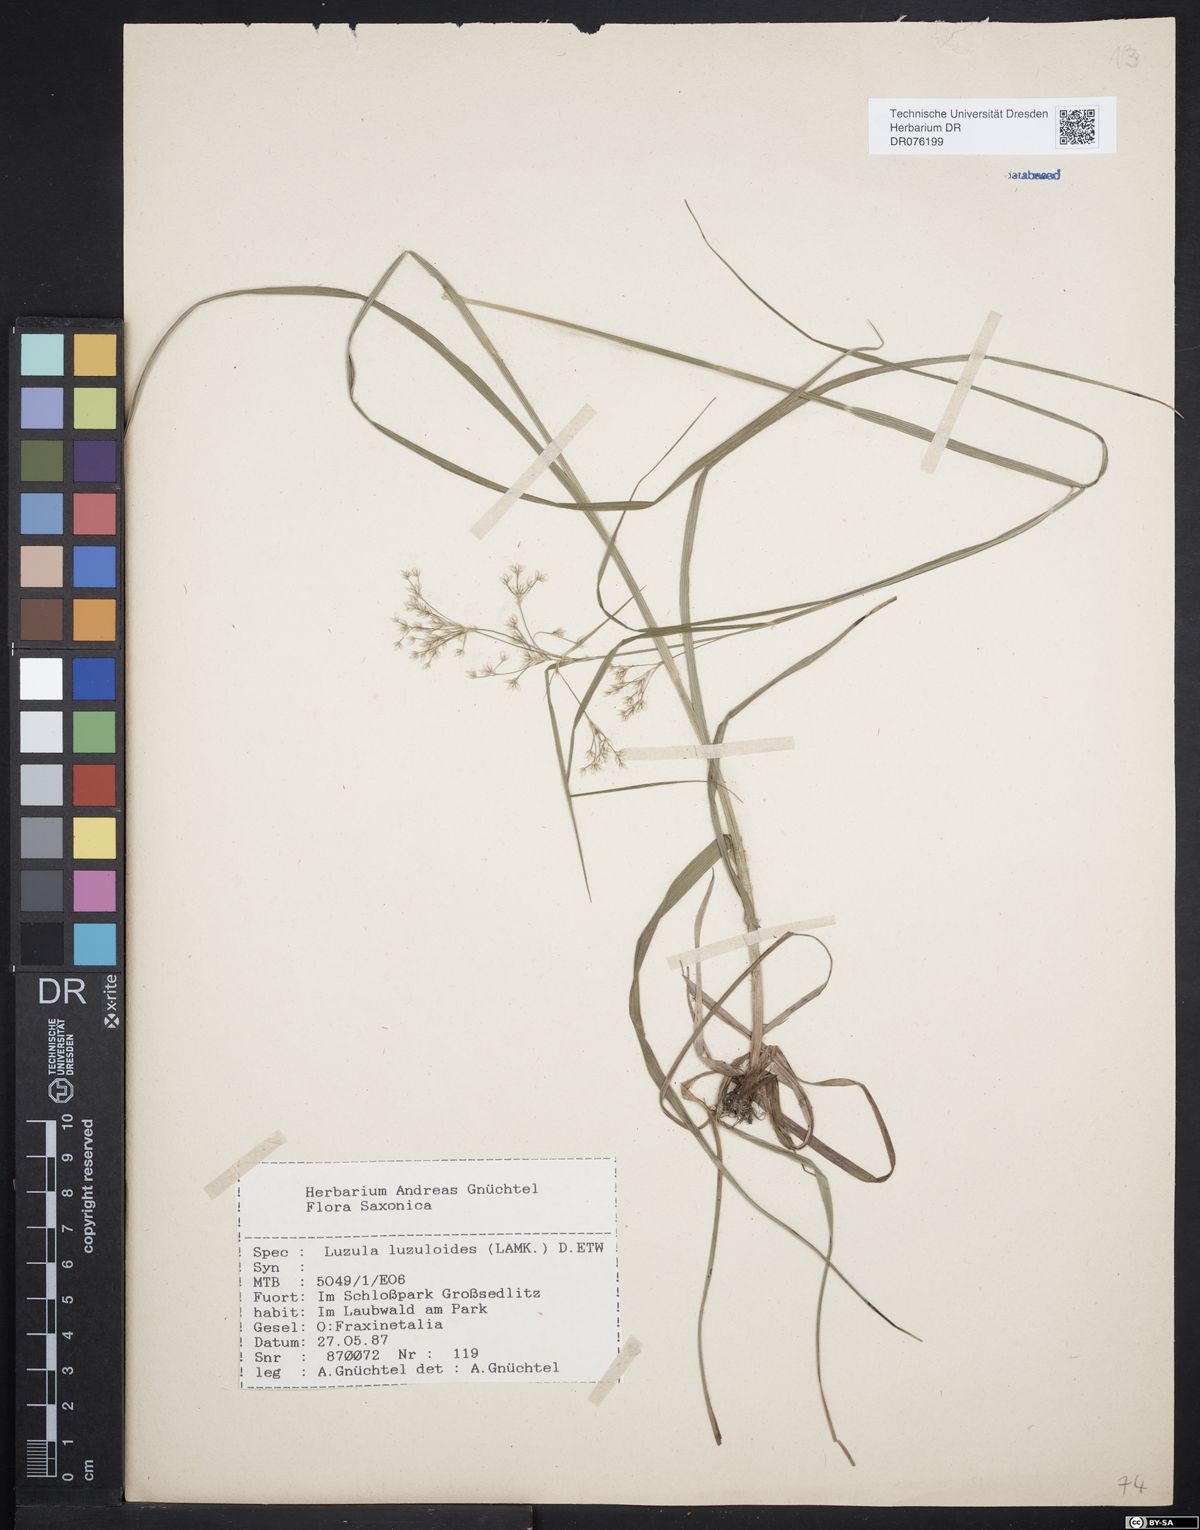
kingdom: Plantae
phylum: Tracheophyta
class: Liliopsida
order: Poales
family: Juncaceae
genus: Luzula
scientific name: Luzula luzuloides
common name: White wood-rush
